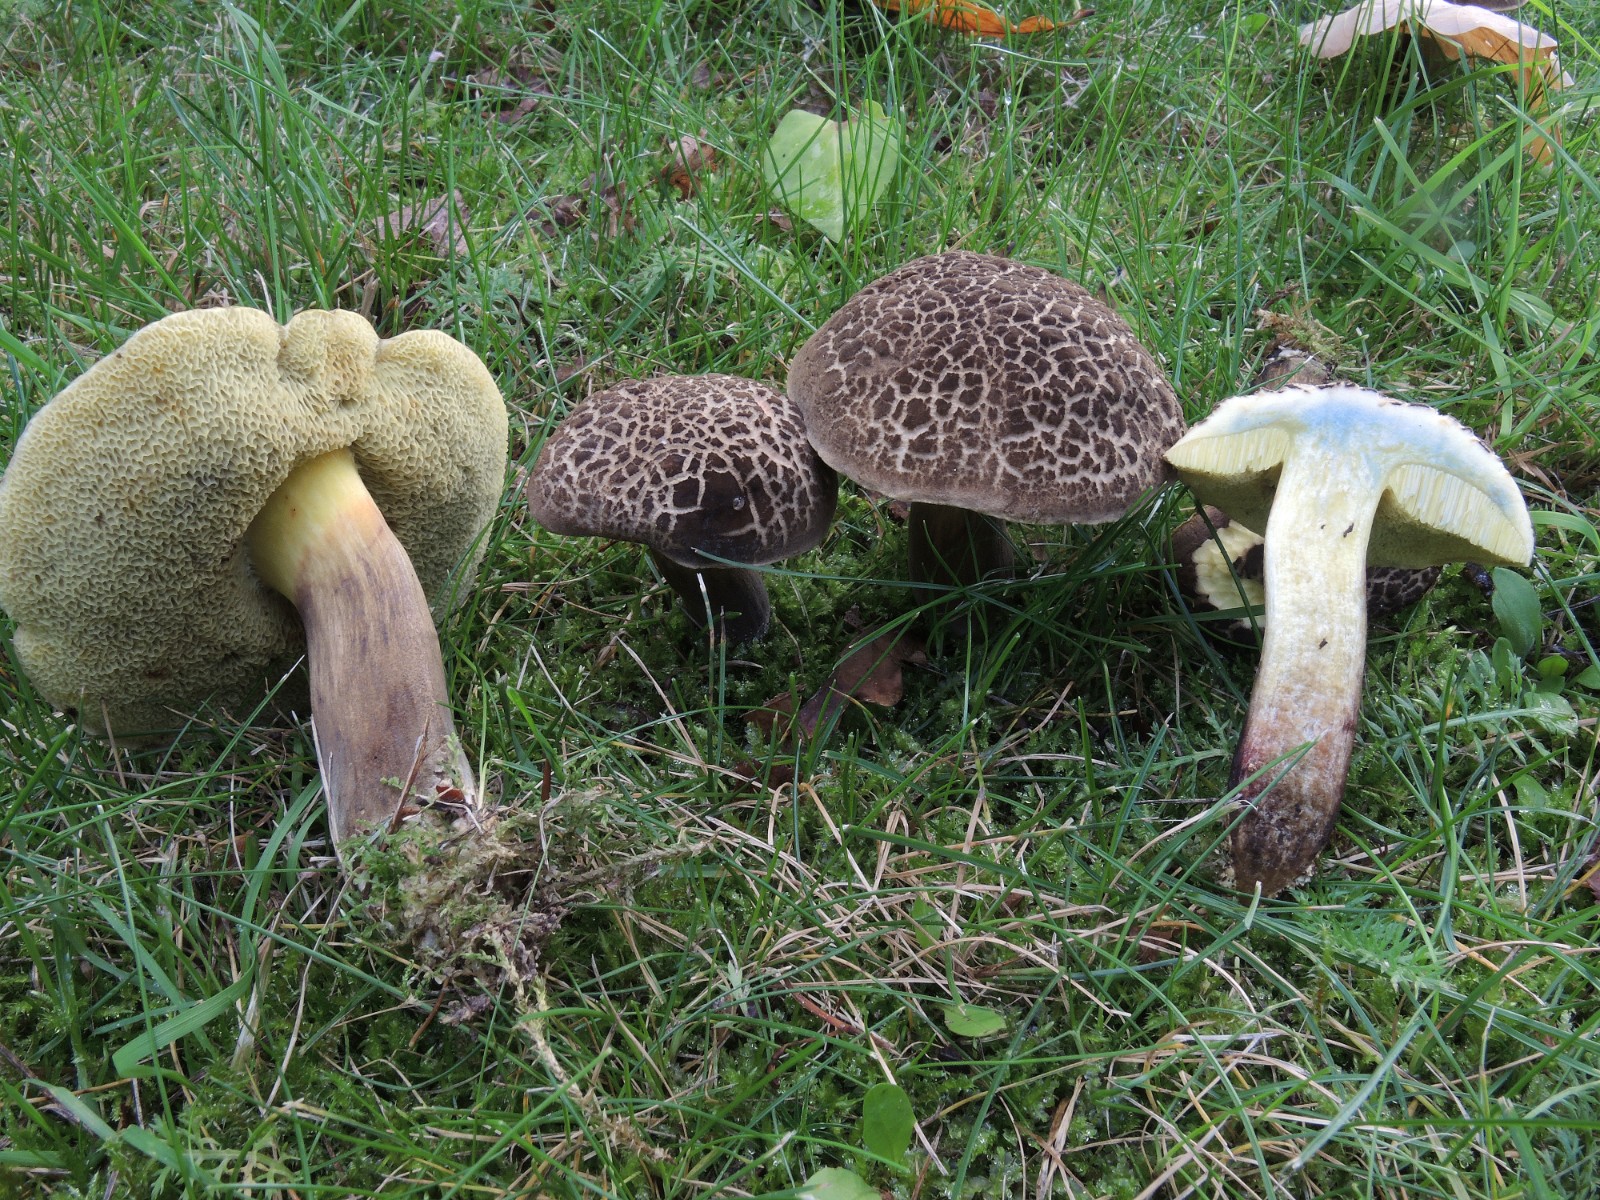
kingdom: Fungi
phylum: Basidiomycota
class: Agaricomycetes
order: Boletales
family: Boletaceae
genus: Xerocomellus
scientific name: Xerocomellus porosporus
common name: hvidsprukken rørhat
